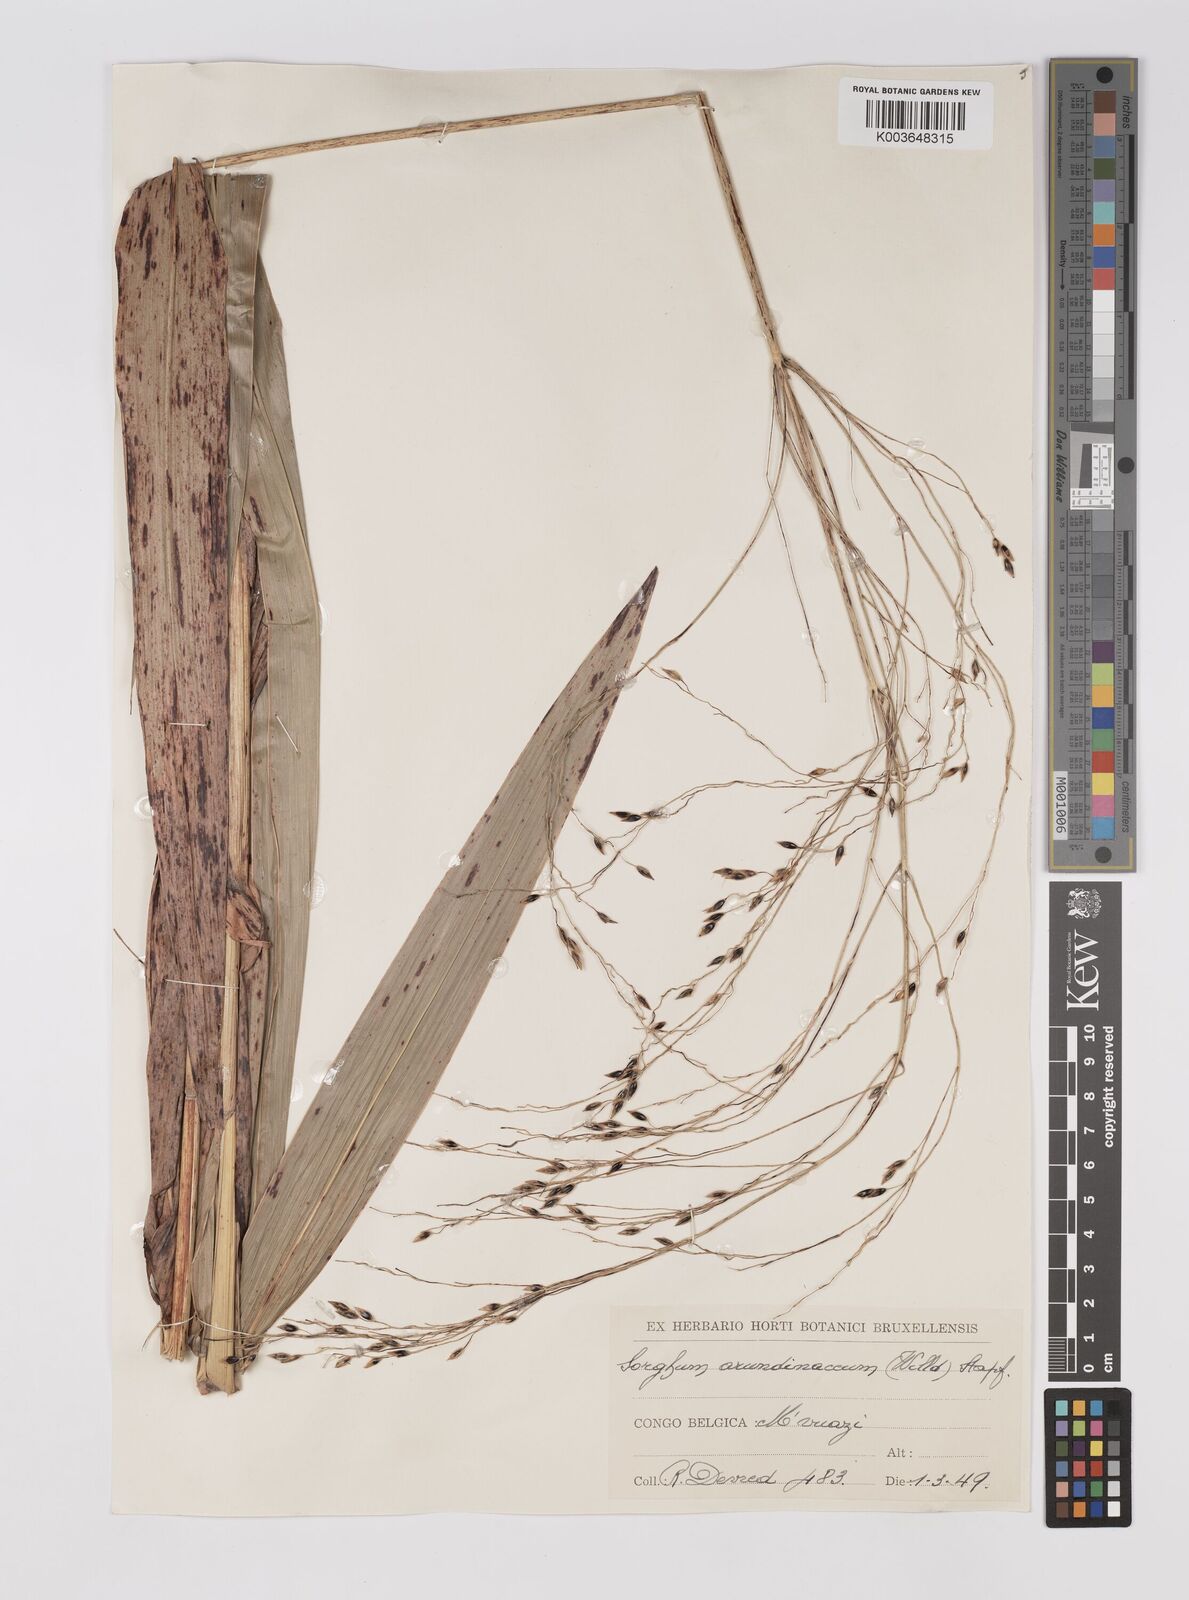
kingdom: Plantae
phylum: Tracheophyta
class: Liliopsida
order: Poales
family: Poaceae
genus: Sorghum
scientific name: Sorghum arundinaceum
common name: Sorghum
